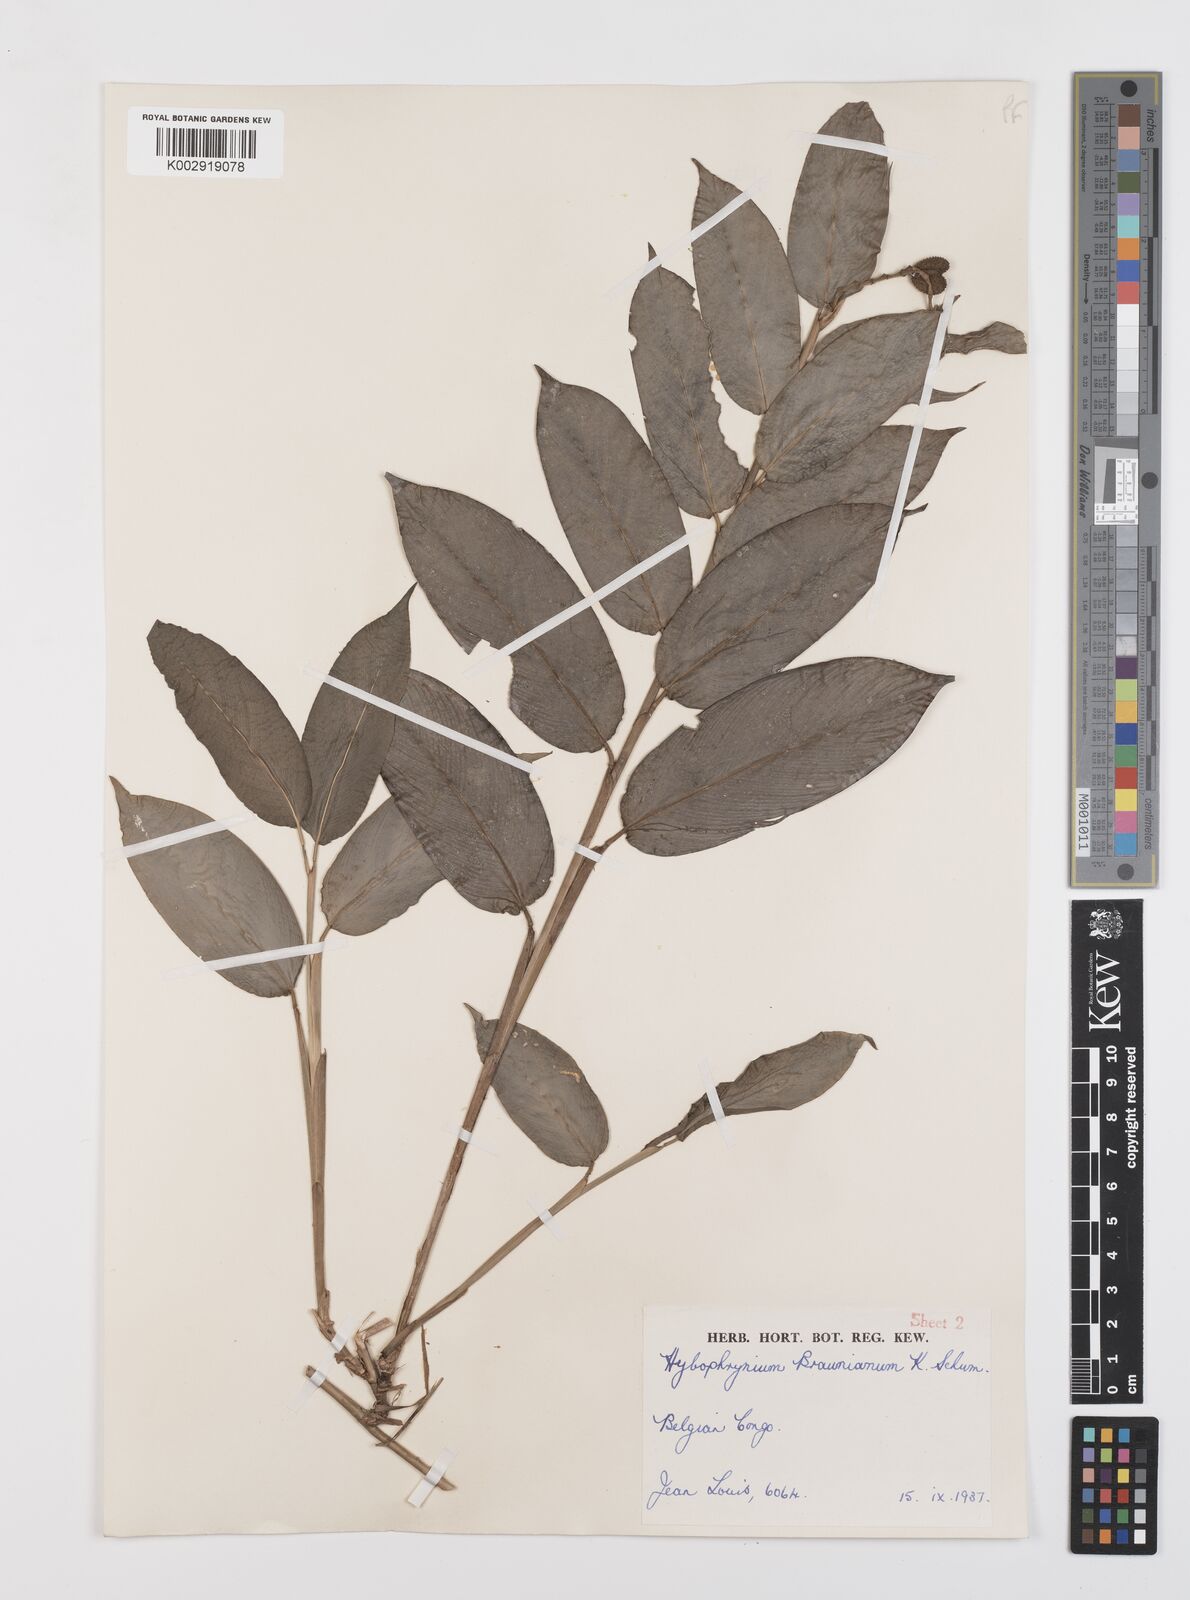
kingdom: Plantae
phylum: Tracheophyta
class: Liliopsida
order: Zingiberales
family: Marantaceae
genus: Trachyphrynium
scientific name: Trachyphrynium braunianum
